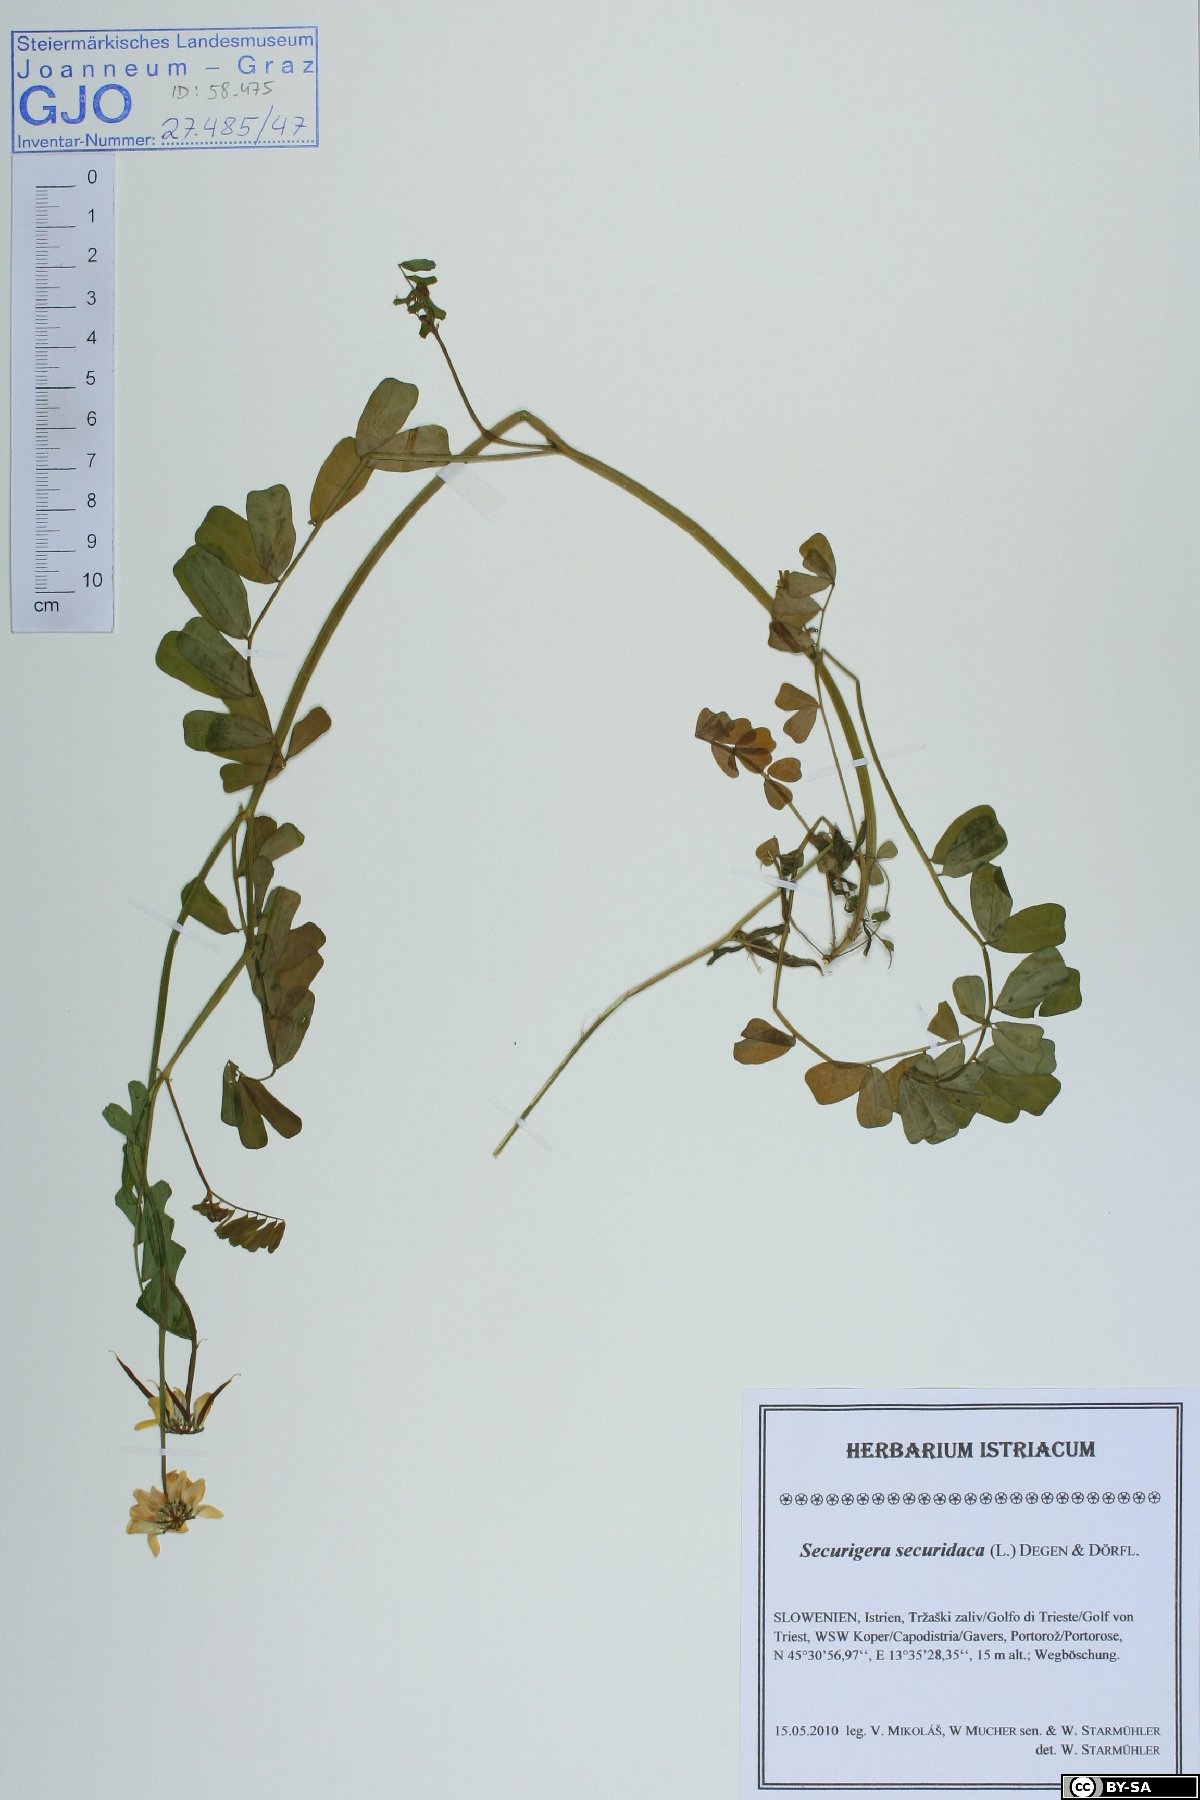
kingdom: Plantae
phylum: Tracheophyta
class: Magnoliopsida
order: Fabales
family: Fabaceae
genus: Coronilla
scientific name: Coronilla securidaca
